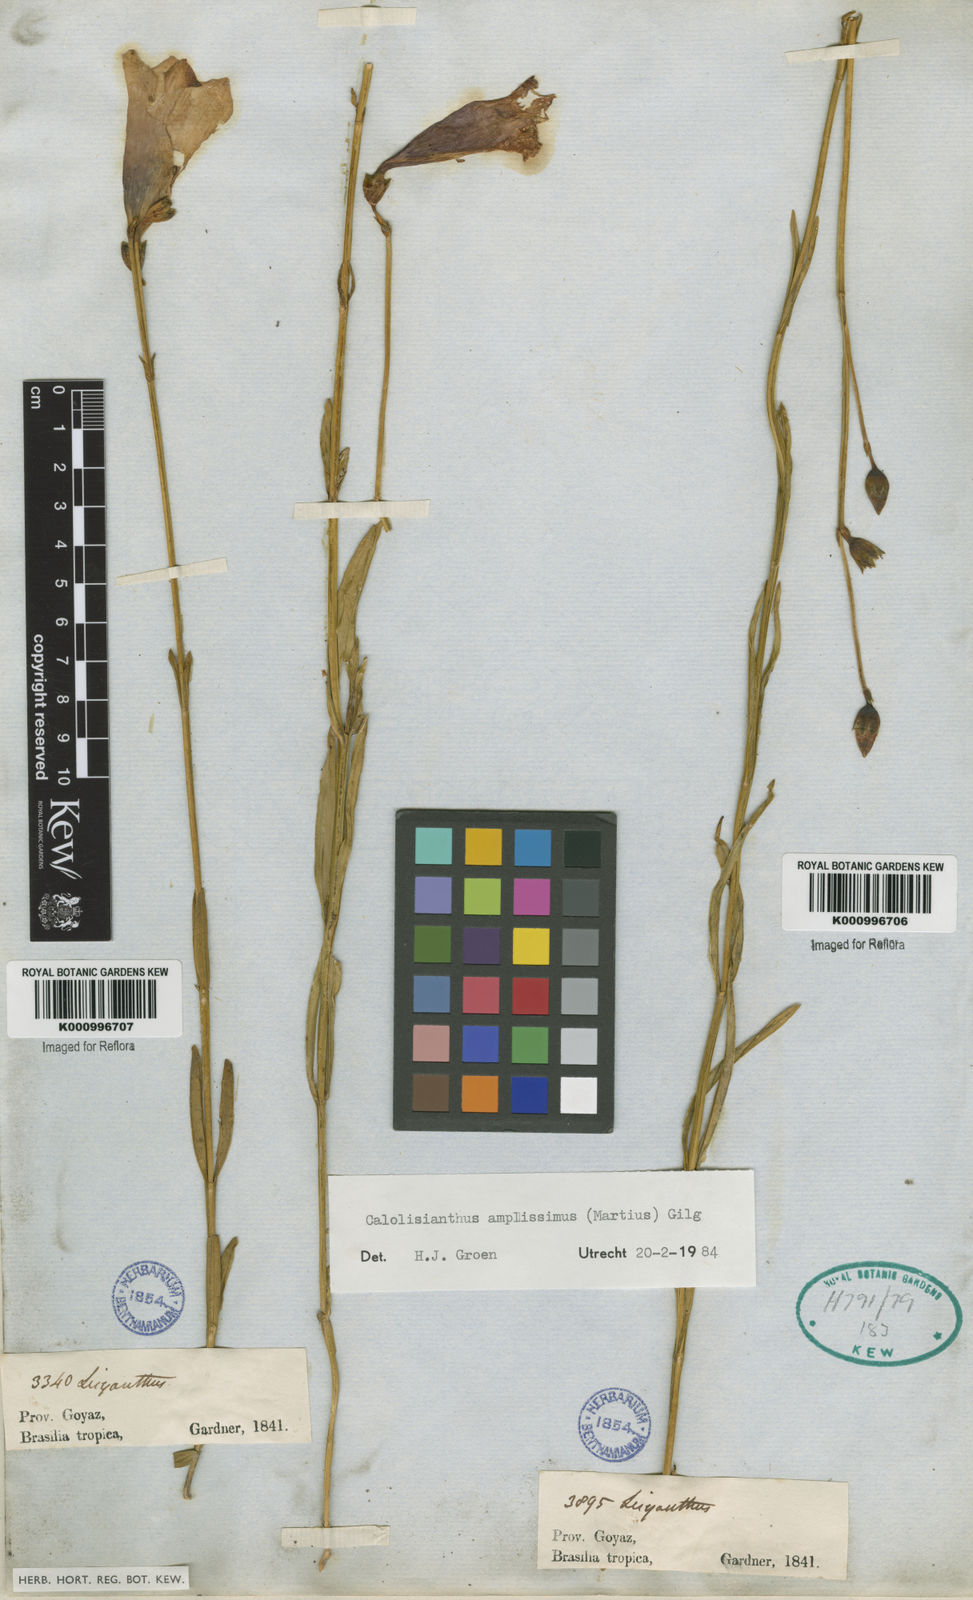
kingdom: Plantae
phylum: Tracheophyta
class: Magnoliopsida
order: Gentianales
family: Gentianaceae
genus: Calolisianthus
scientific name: Calolisianthus speciosus
